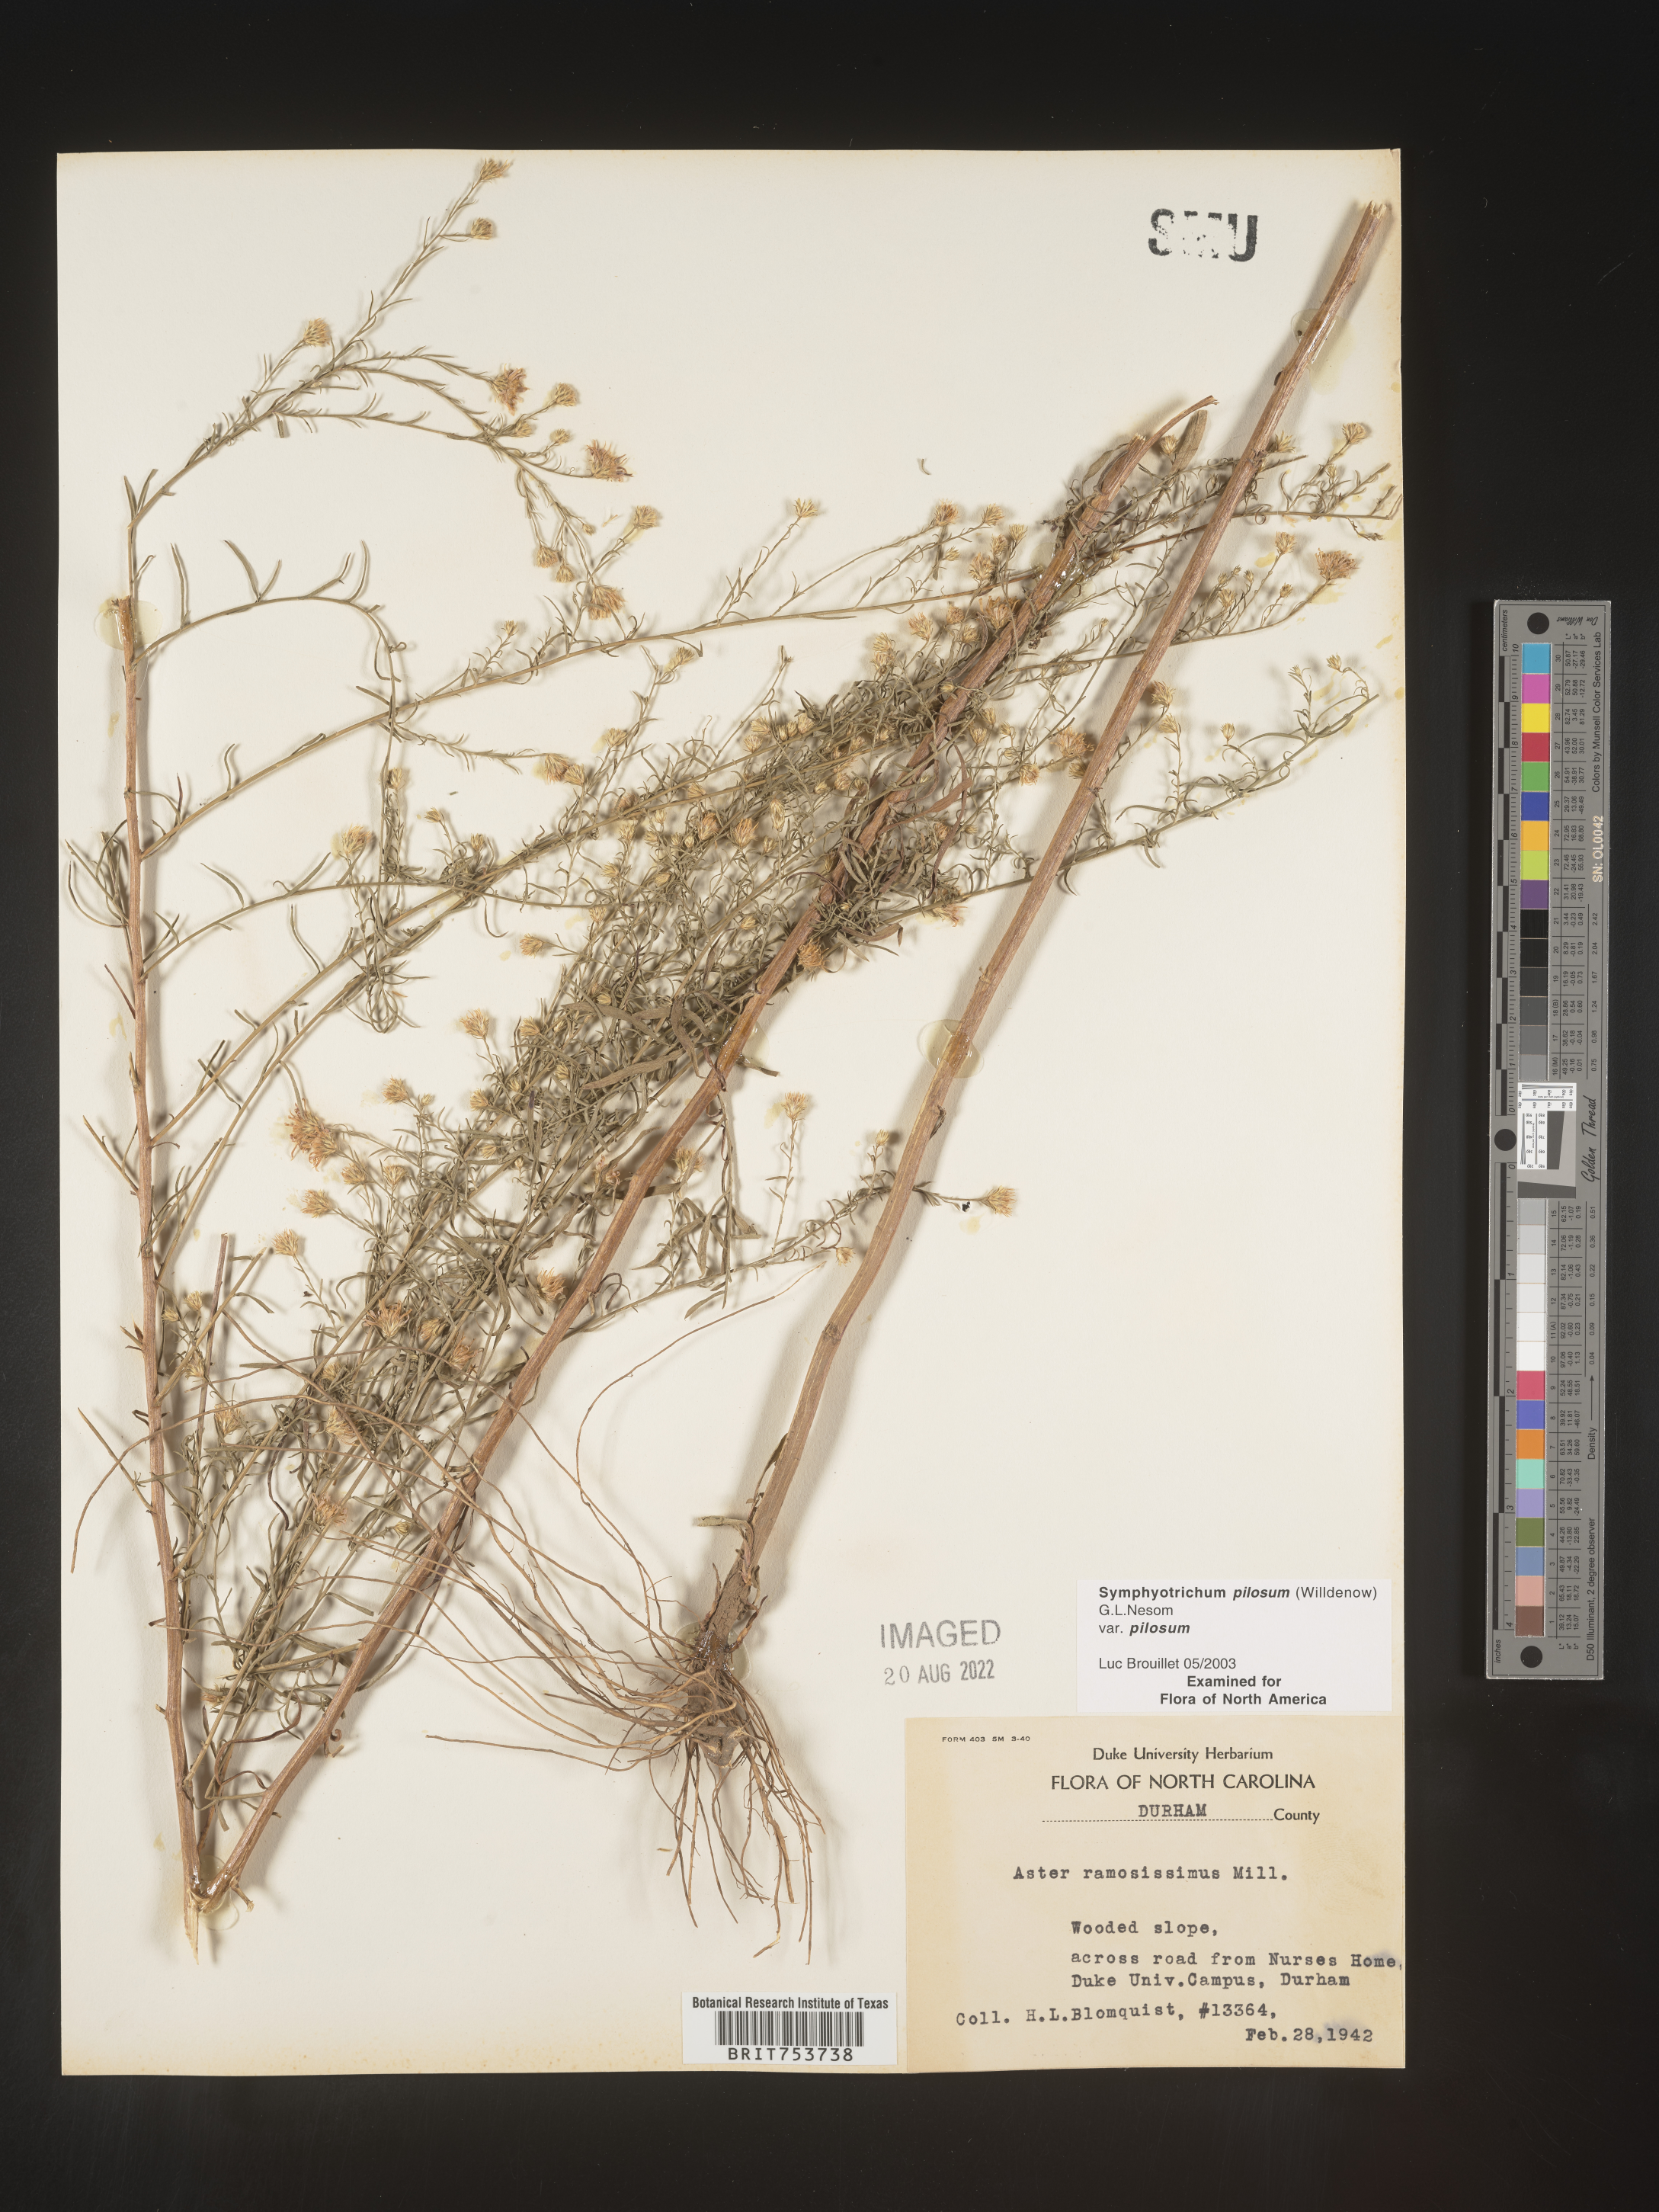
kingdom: Plantae
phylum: Tracheophyta
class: Magnoliopsida
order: Asterales
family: Asteraceae
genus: Symphyotrichum
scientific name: Symphyotrichum pilosum
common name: Awl aster
